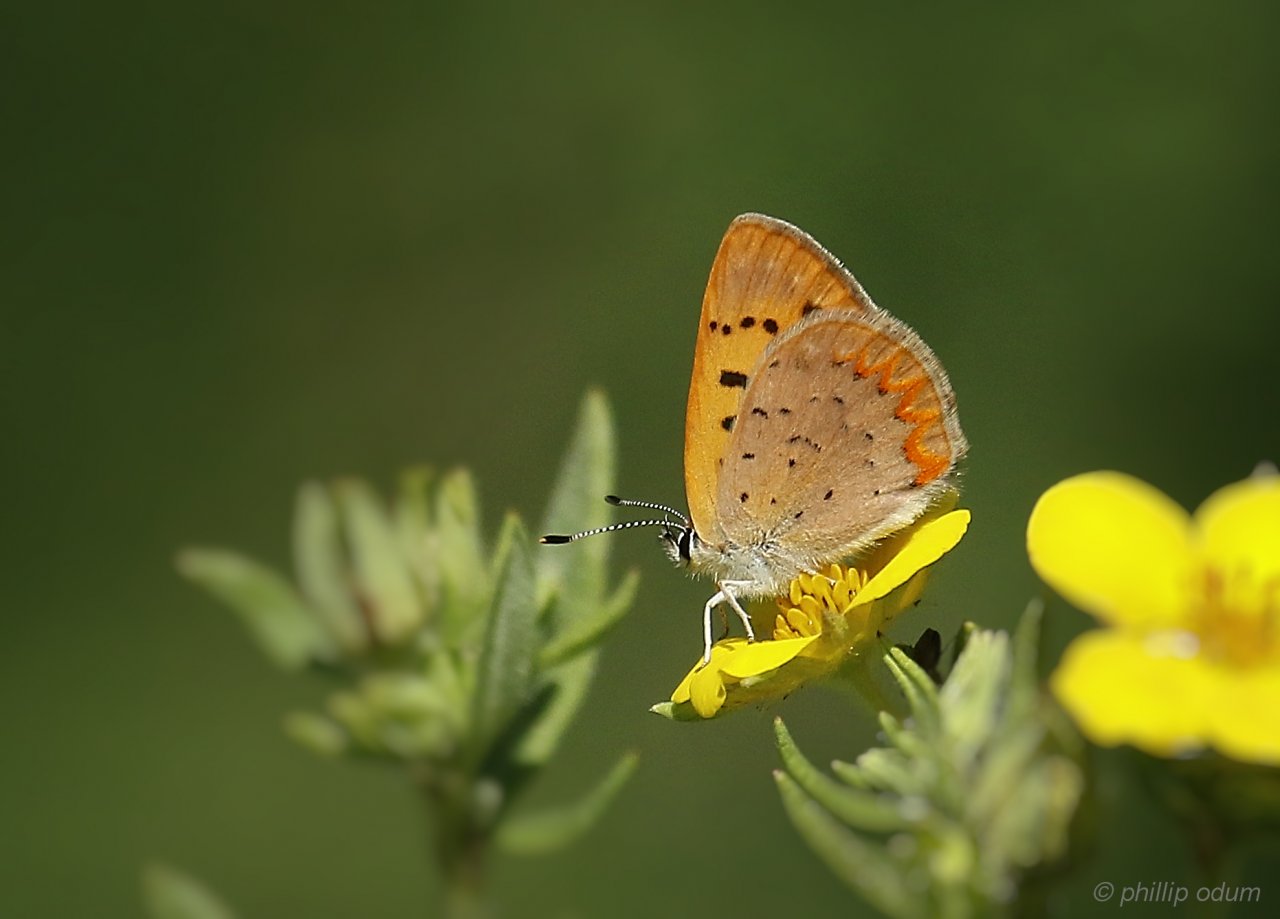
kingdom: Animalia
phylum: Arthropoda
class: Insecta
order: Lepidoptera
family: Lycaenidae
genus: Epidemia
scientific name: Epidemia dorcas
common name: Dorcas Copper
